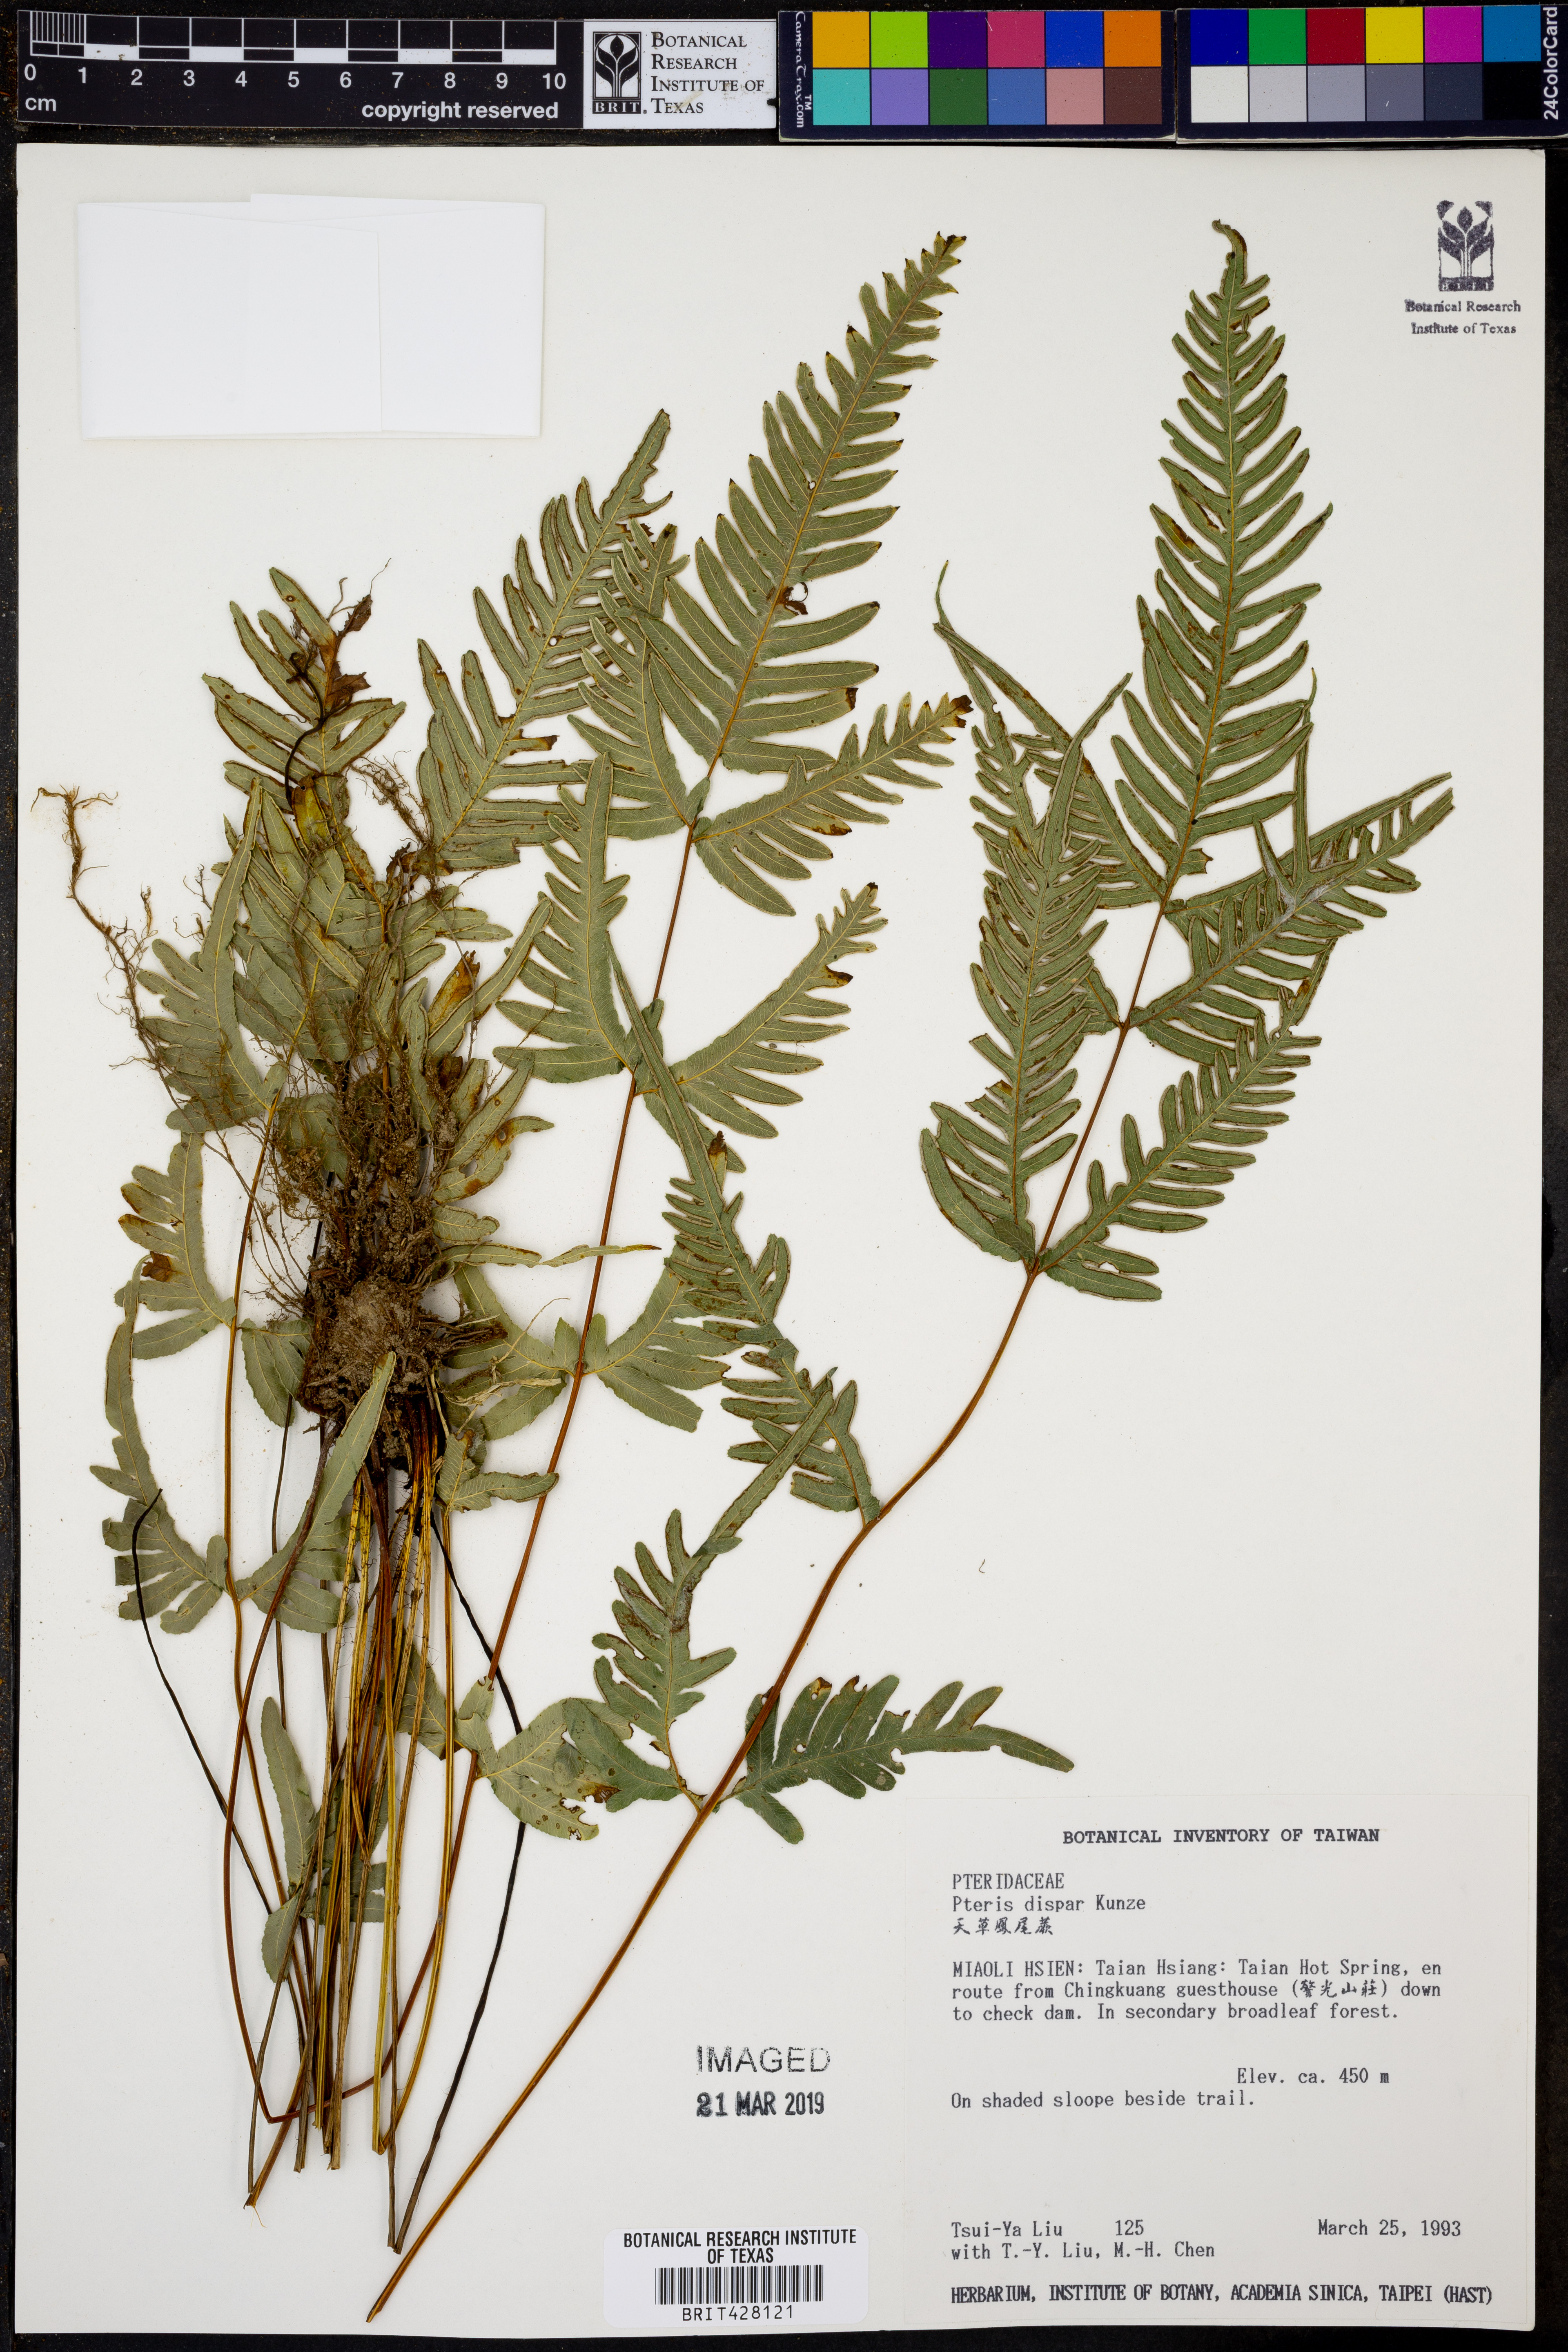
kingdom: Plantae
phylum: Tracheophyta
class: Polypodiopsida
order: Polypodiales
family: Pteridaceae
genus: Pteris
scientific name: Pteris dispar
